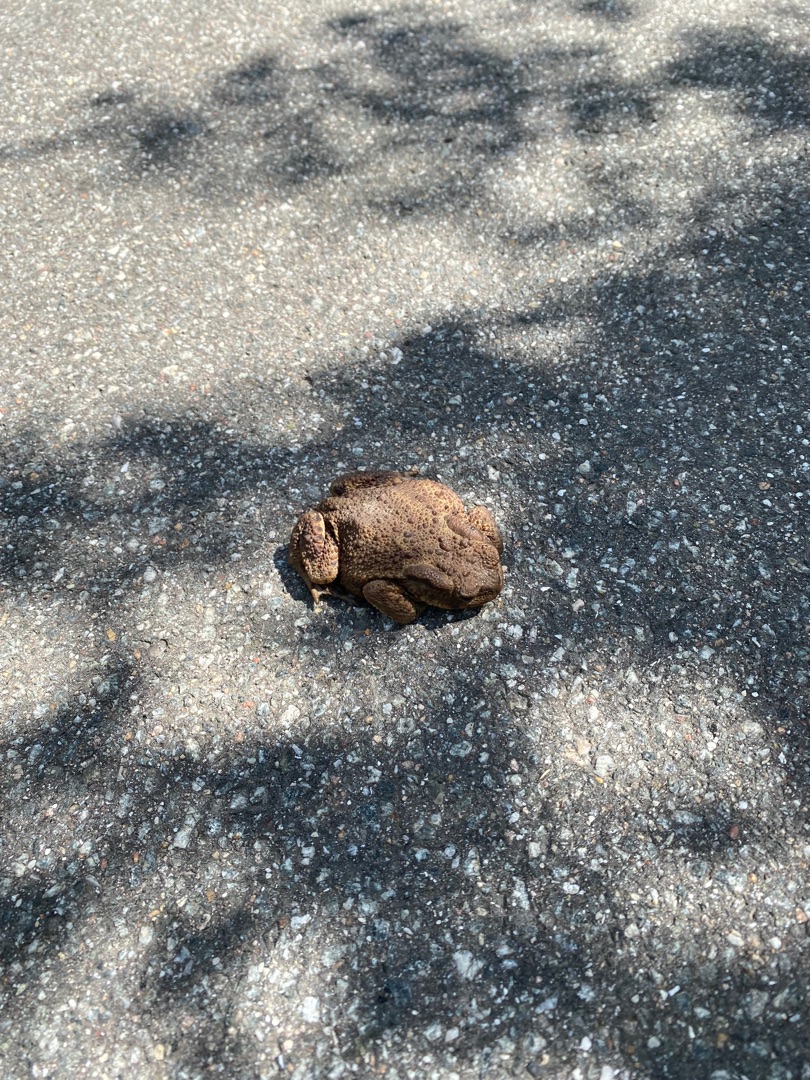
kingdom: Animalia
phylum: Chordata
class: Amphibia
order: Anura
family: Bufonidae
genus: Bufo
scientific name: Bufo bufo
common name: Skrubtudse
